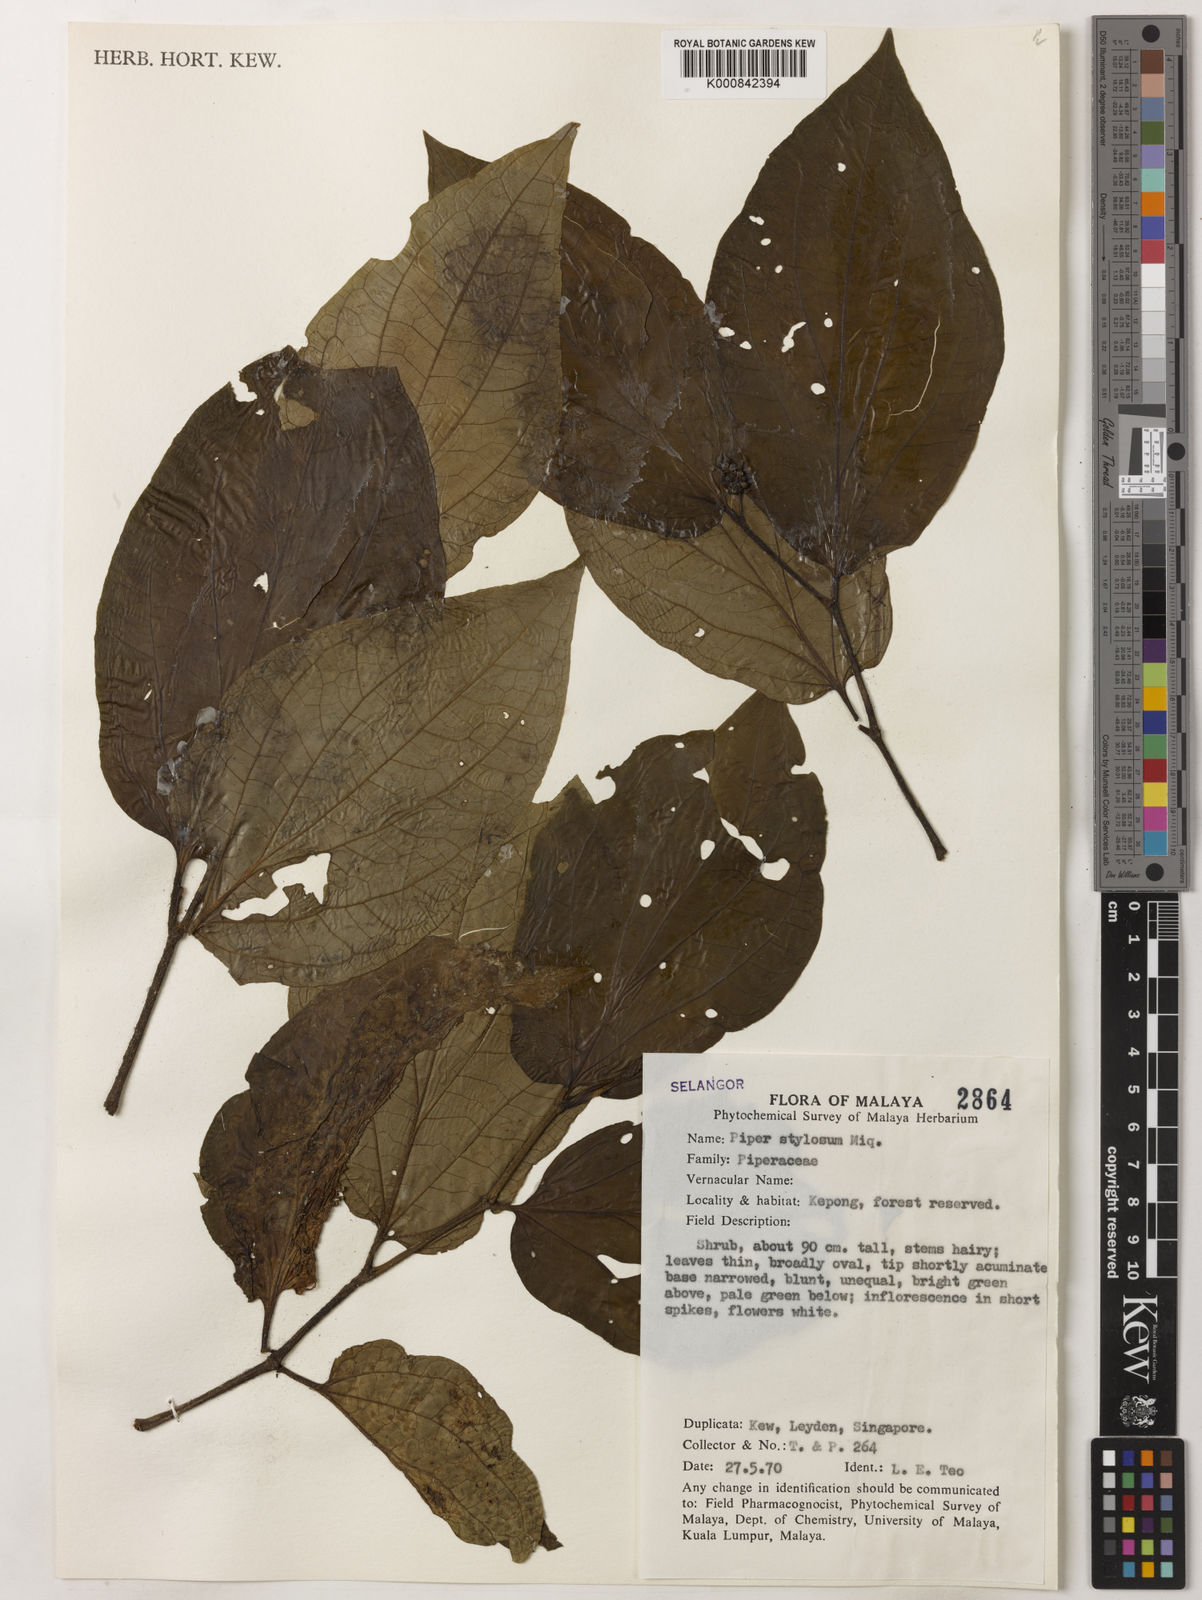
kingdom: Plantae
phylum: Tracheophyta
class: Magnoliopsida
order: Piperales
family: Piperaceae
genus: Piper
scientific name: Piper rostratum
